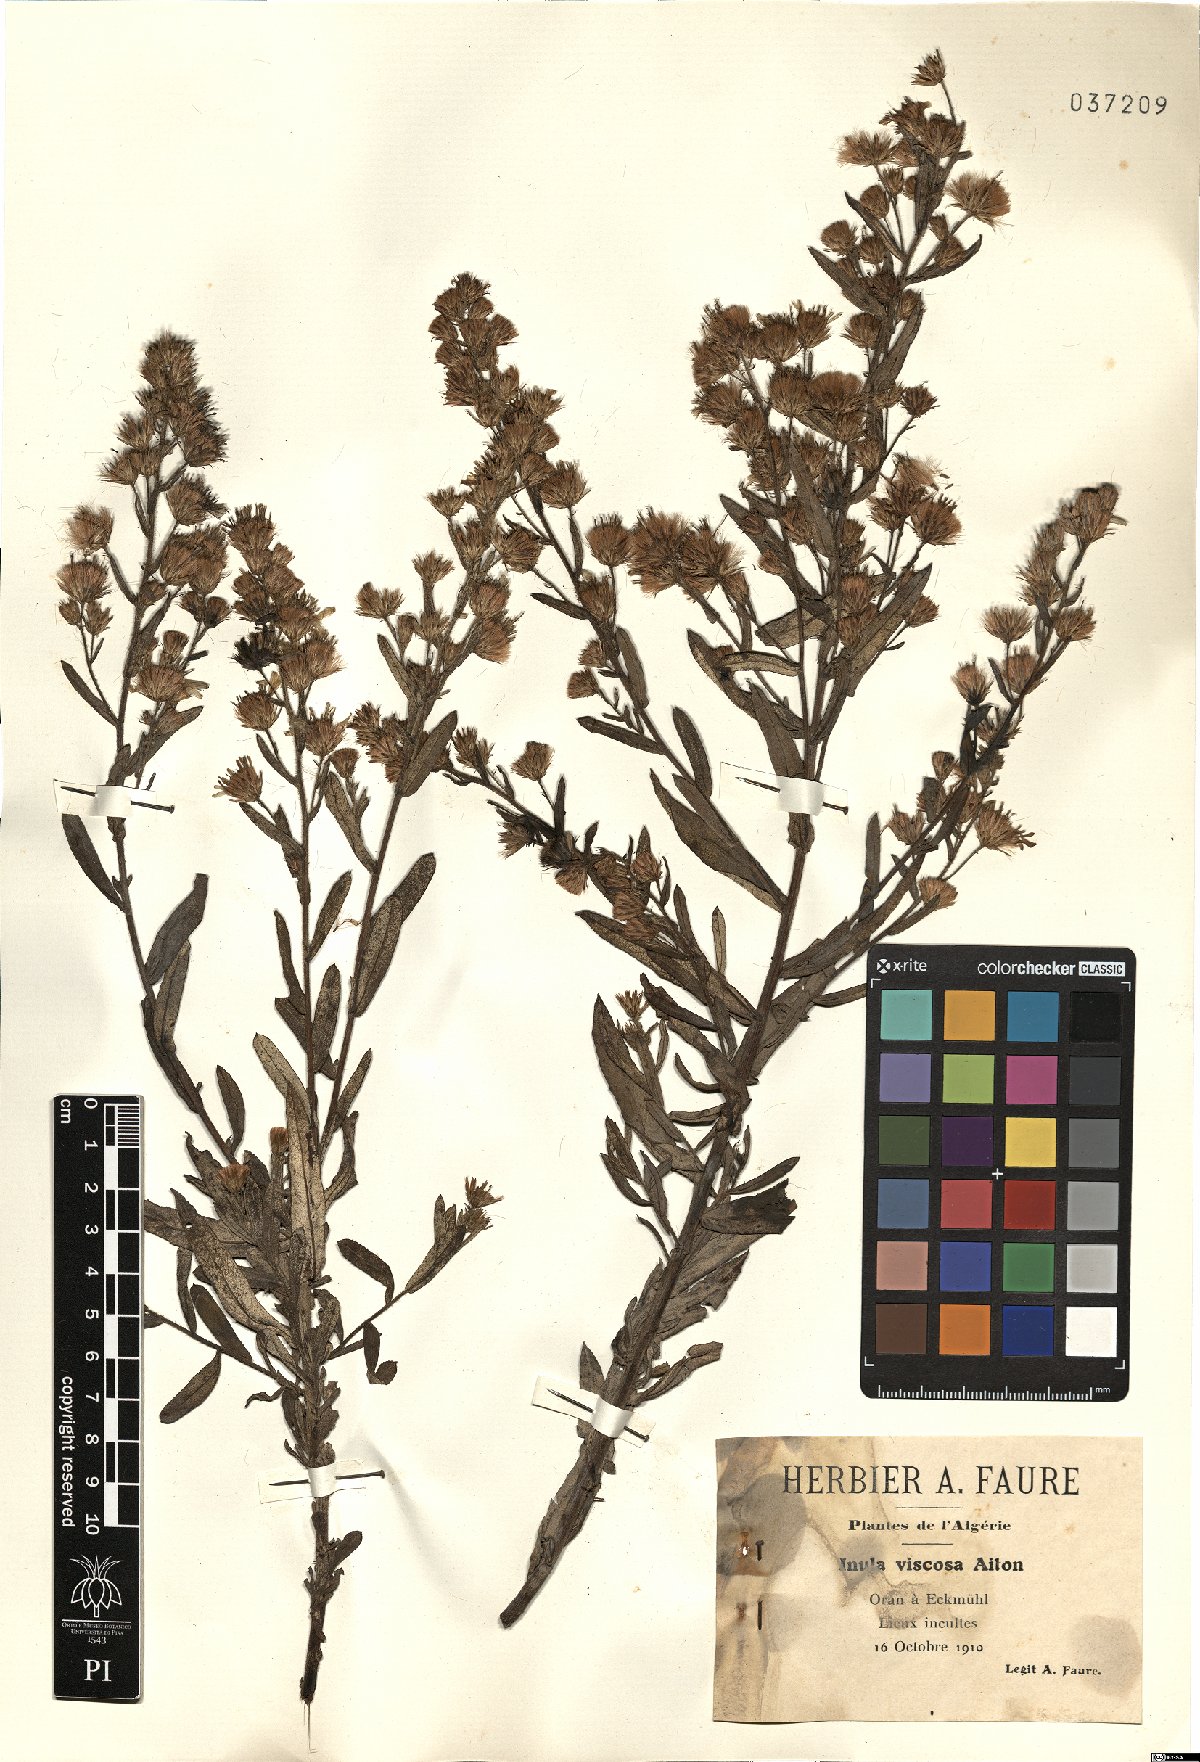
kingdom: Plantae
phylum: Tracheophyta
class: Magnoliopsida
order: Asterales
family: Asteraceae
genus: Dittrichia
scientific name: Dittrichia viscosa
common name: Woody fleabane
